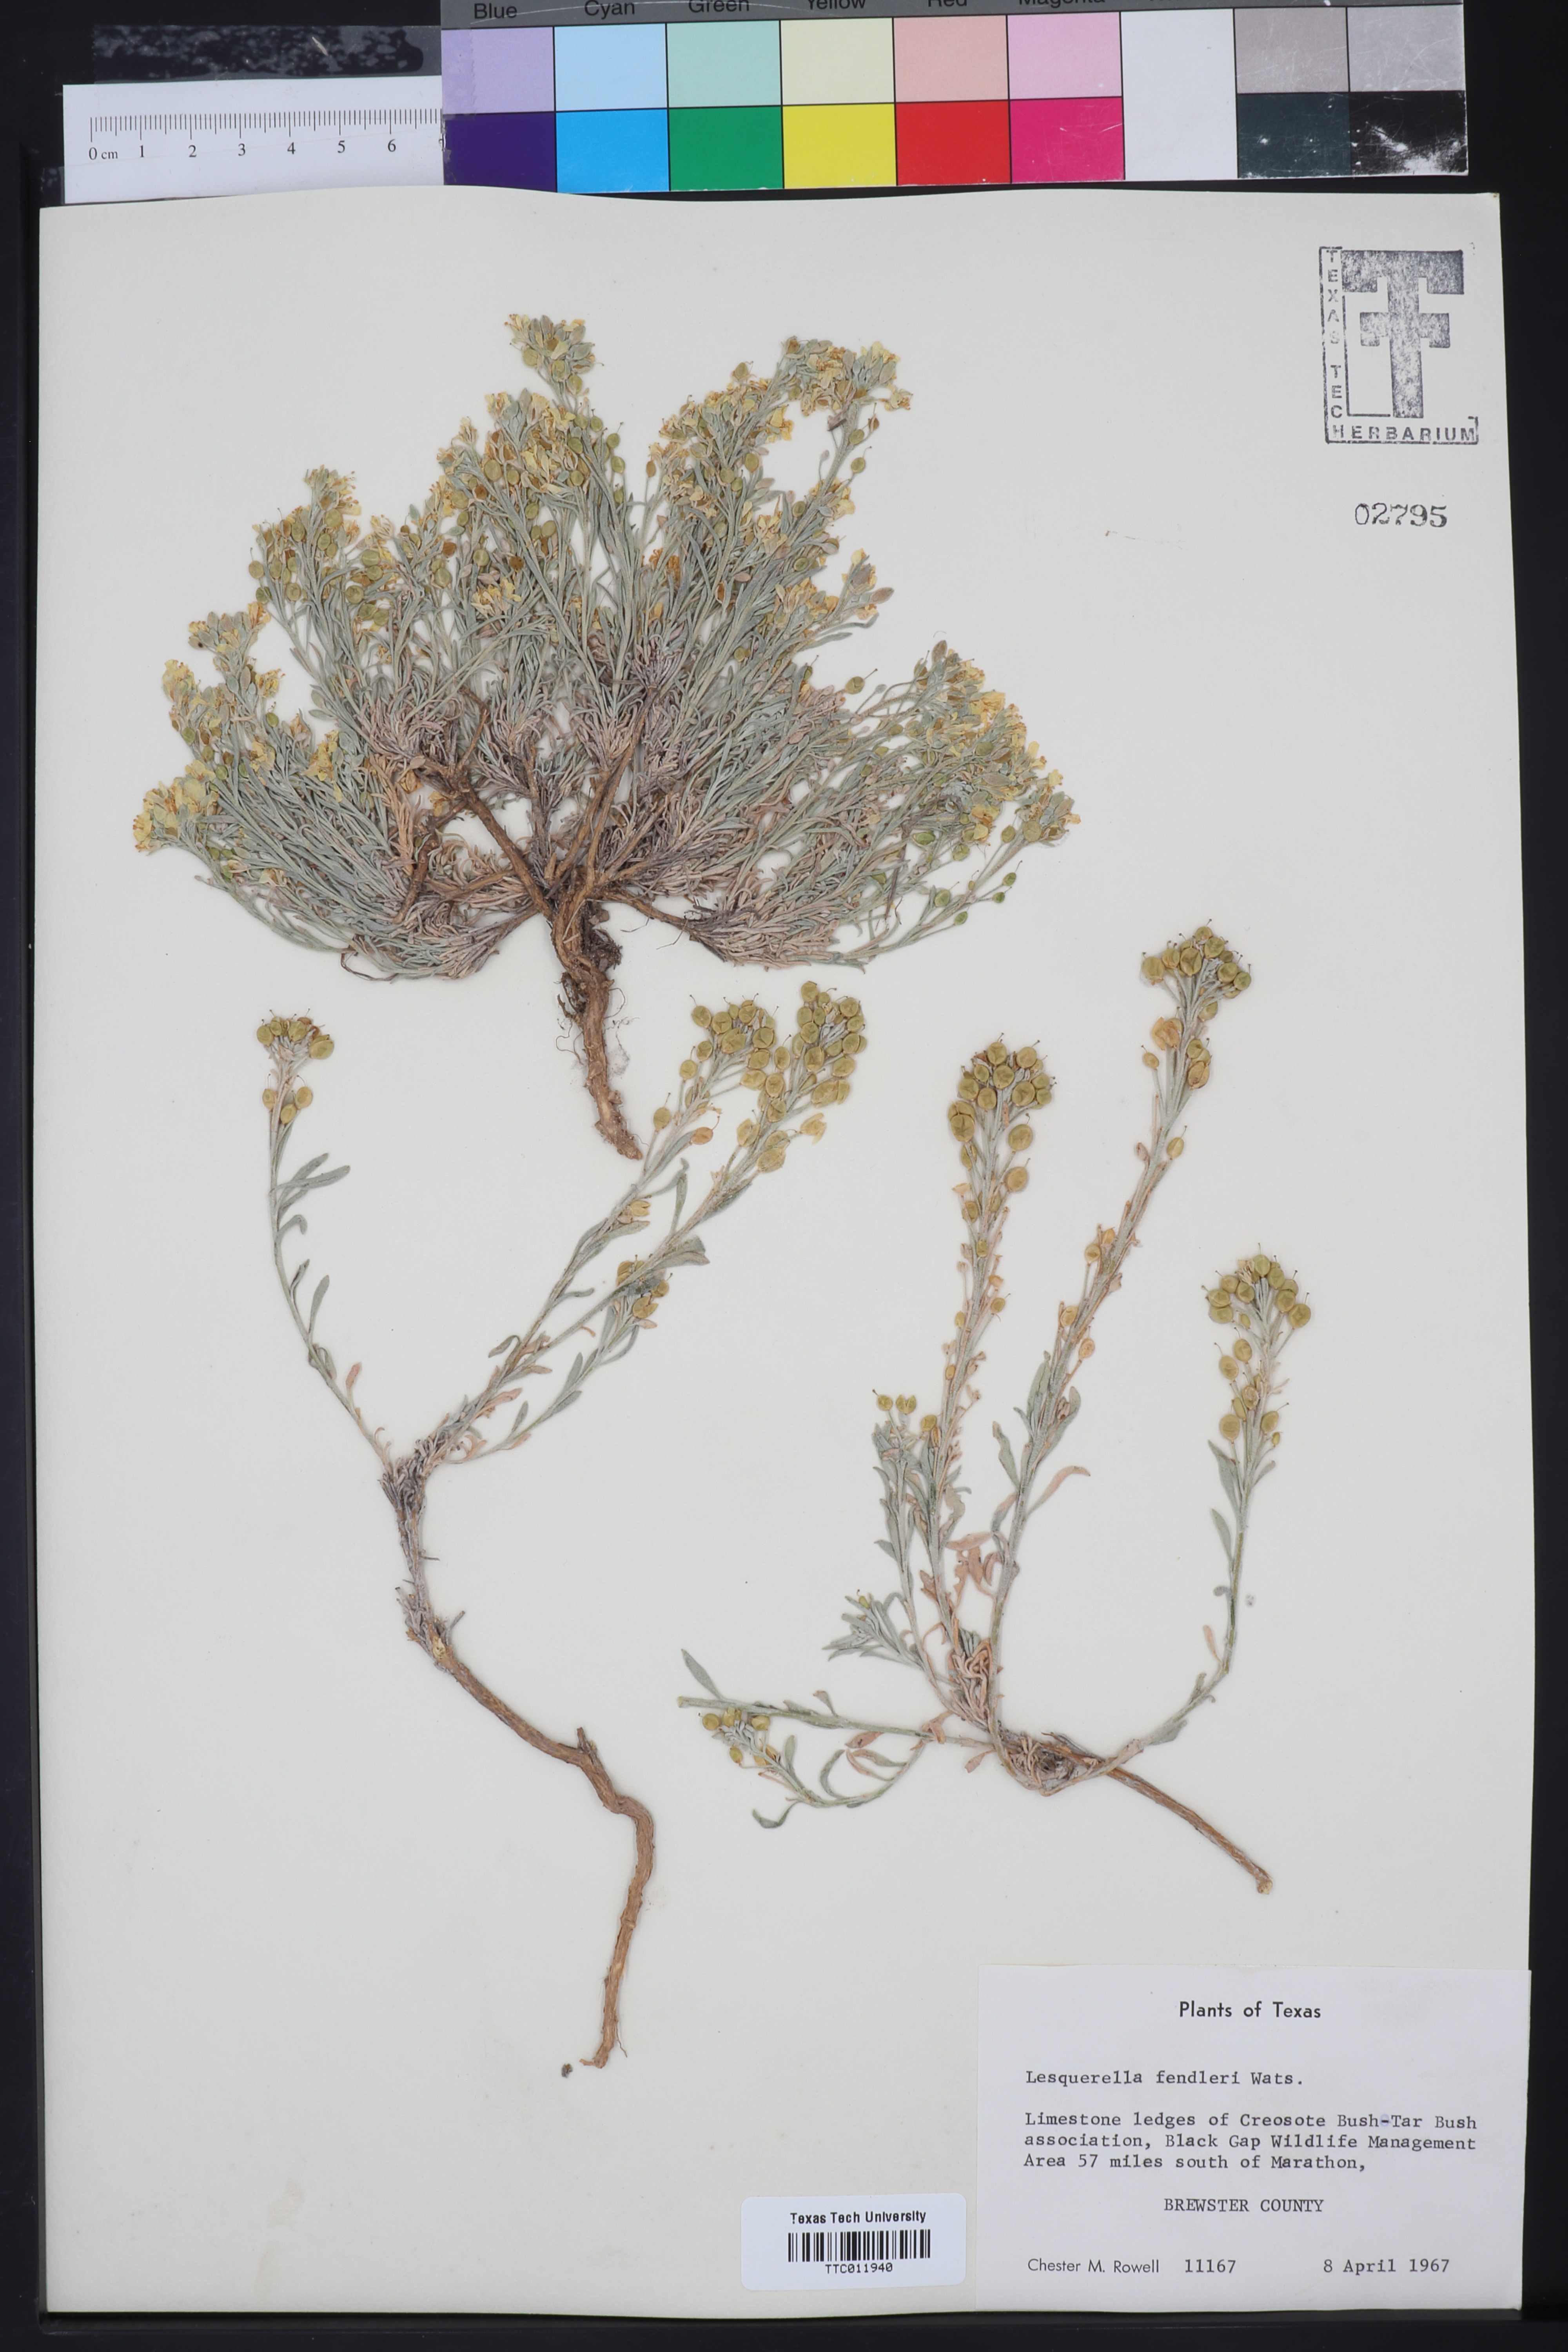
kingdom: Plantae
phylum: Tracheophyta
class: Magnoliopsida
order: Brassicales
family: Brassicaceae
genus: Physaria
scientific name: Physaria fendleri
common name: Fendler's bladderpod
